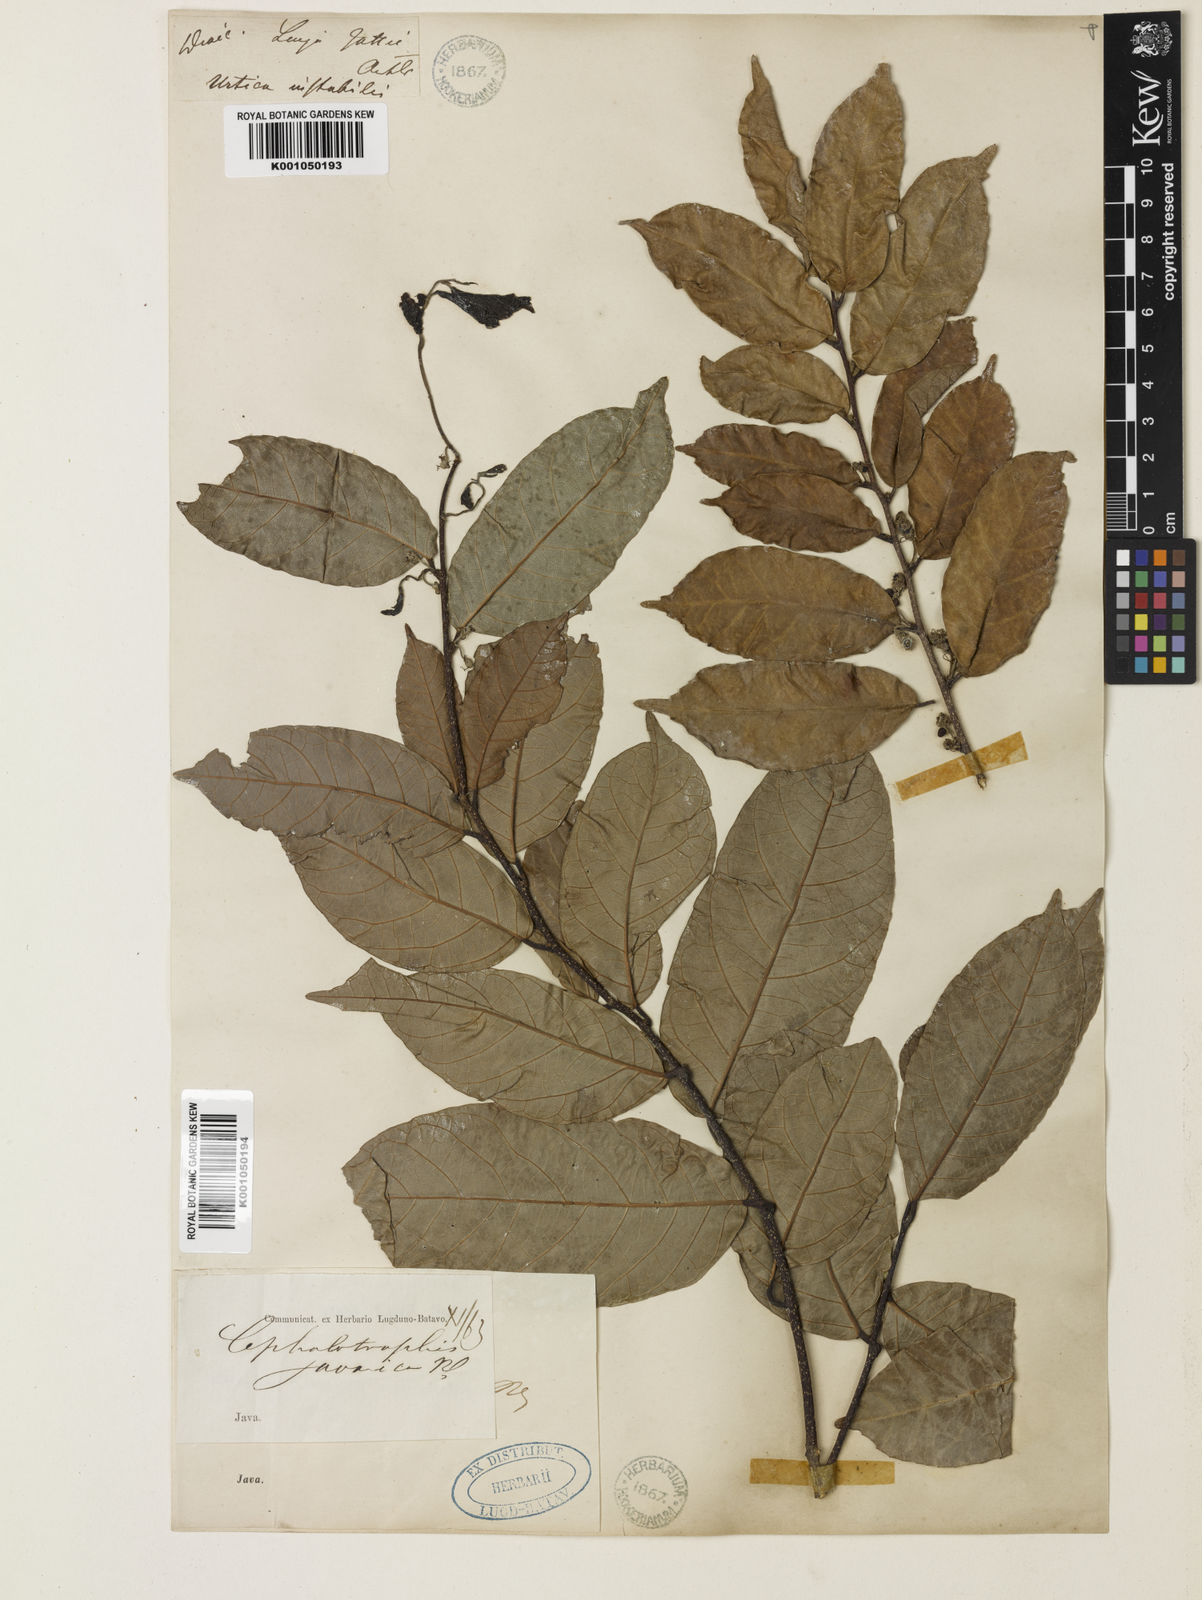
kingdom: Plantae
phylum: Tracheophyta
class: Magnoliopsida
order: Rosales
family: Moraceae
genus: Malaisia
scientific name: Malaisia scandens
